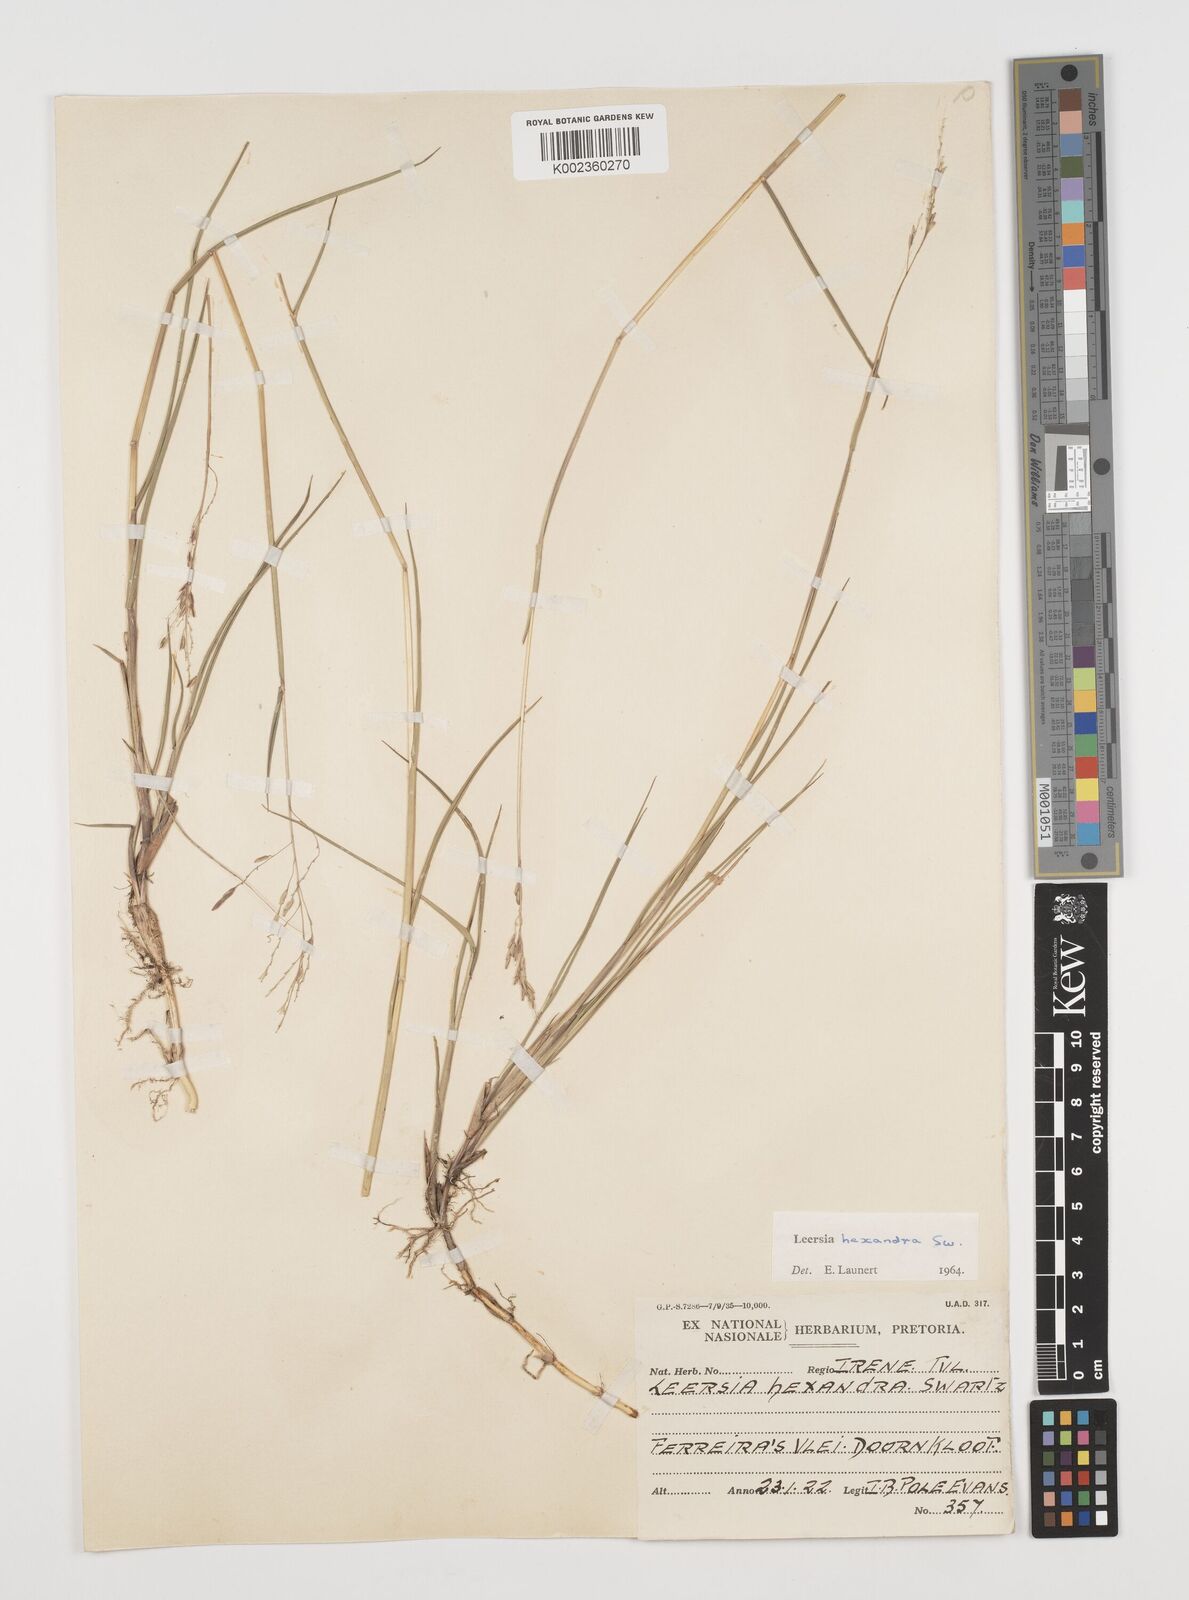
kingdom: Plantae
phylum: Tracheophyta
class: Liliopsida
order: Poales
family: Poaceae
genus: Leersia
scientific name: Leersia hexandra
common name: Southern cut grass
